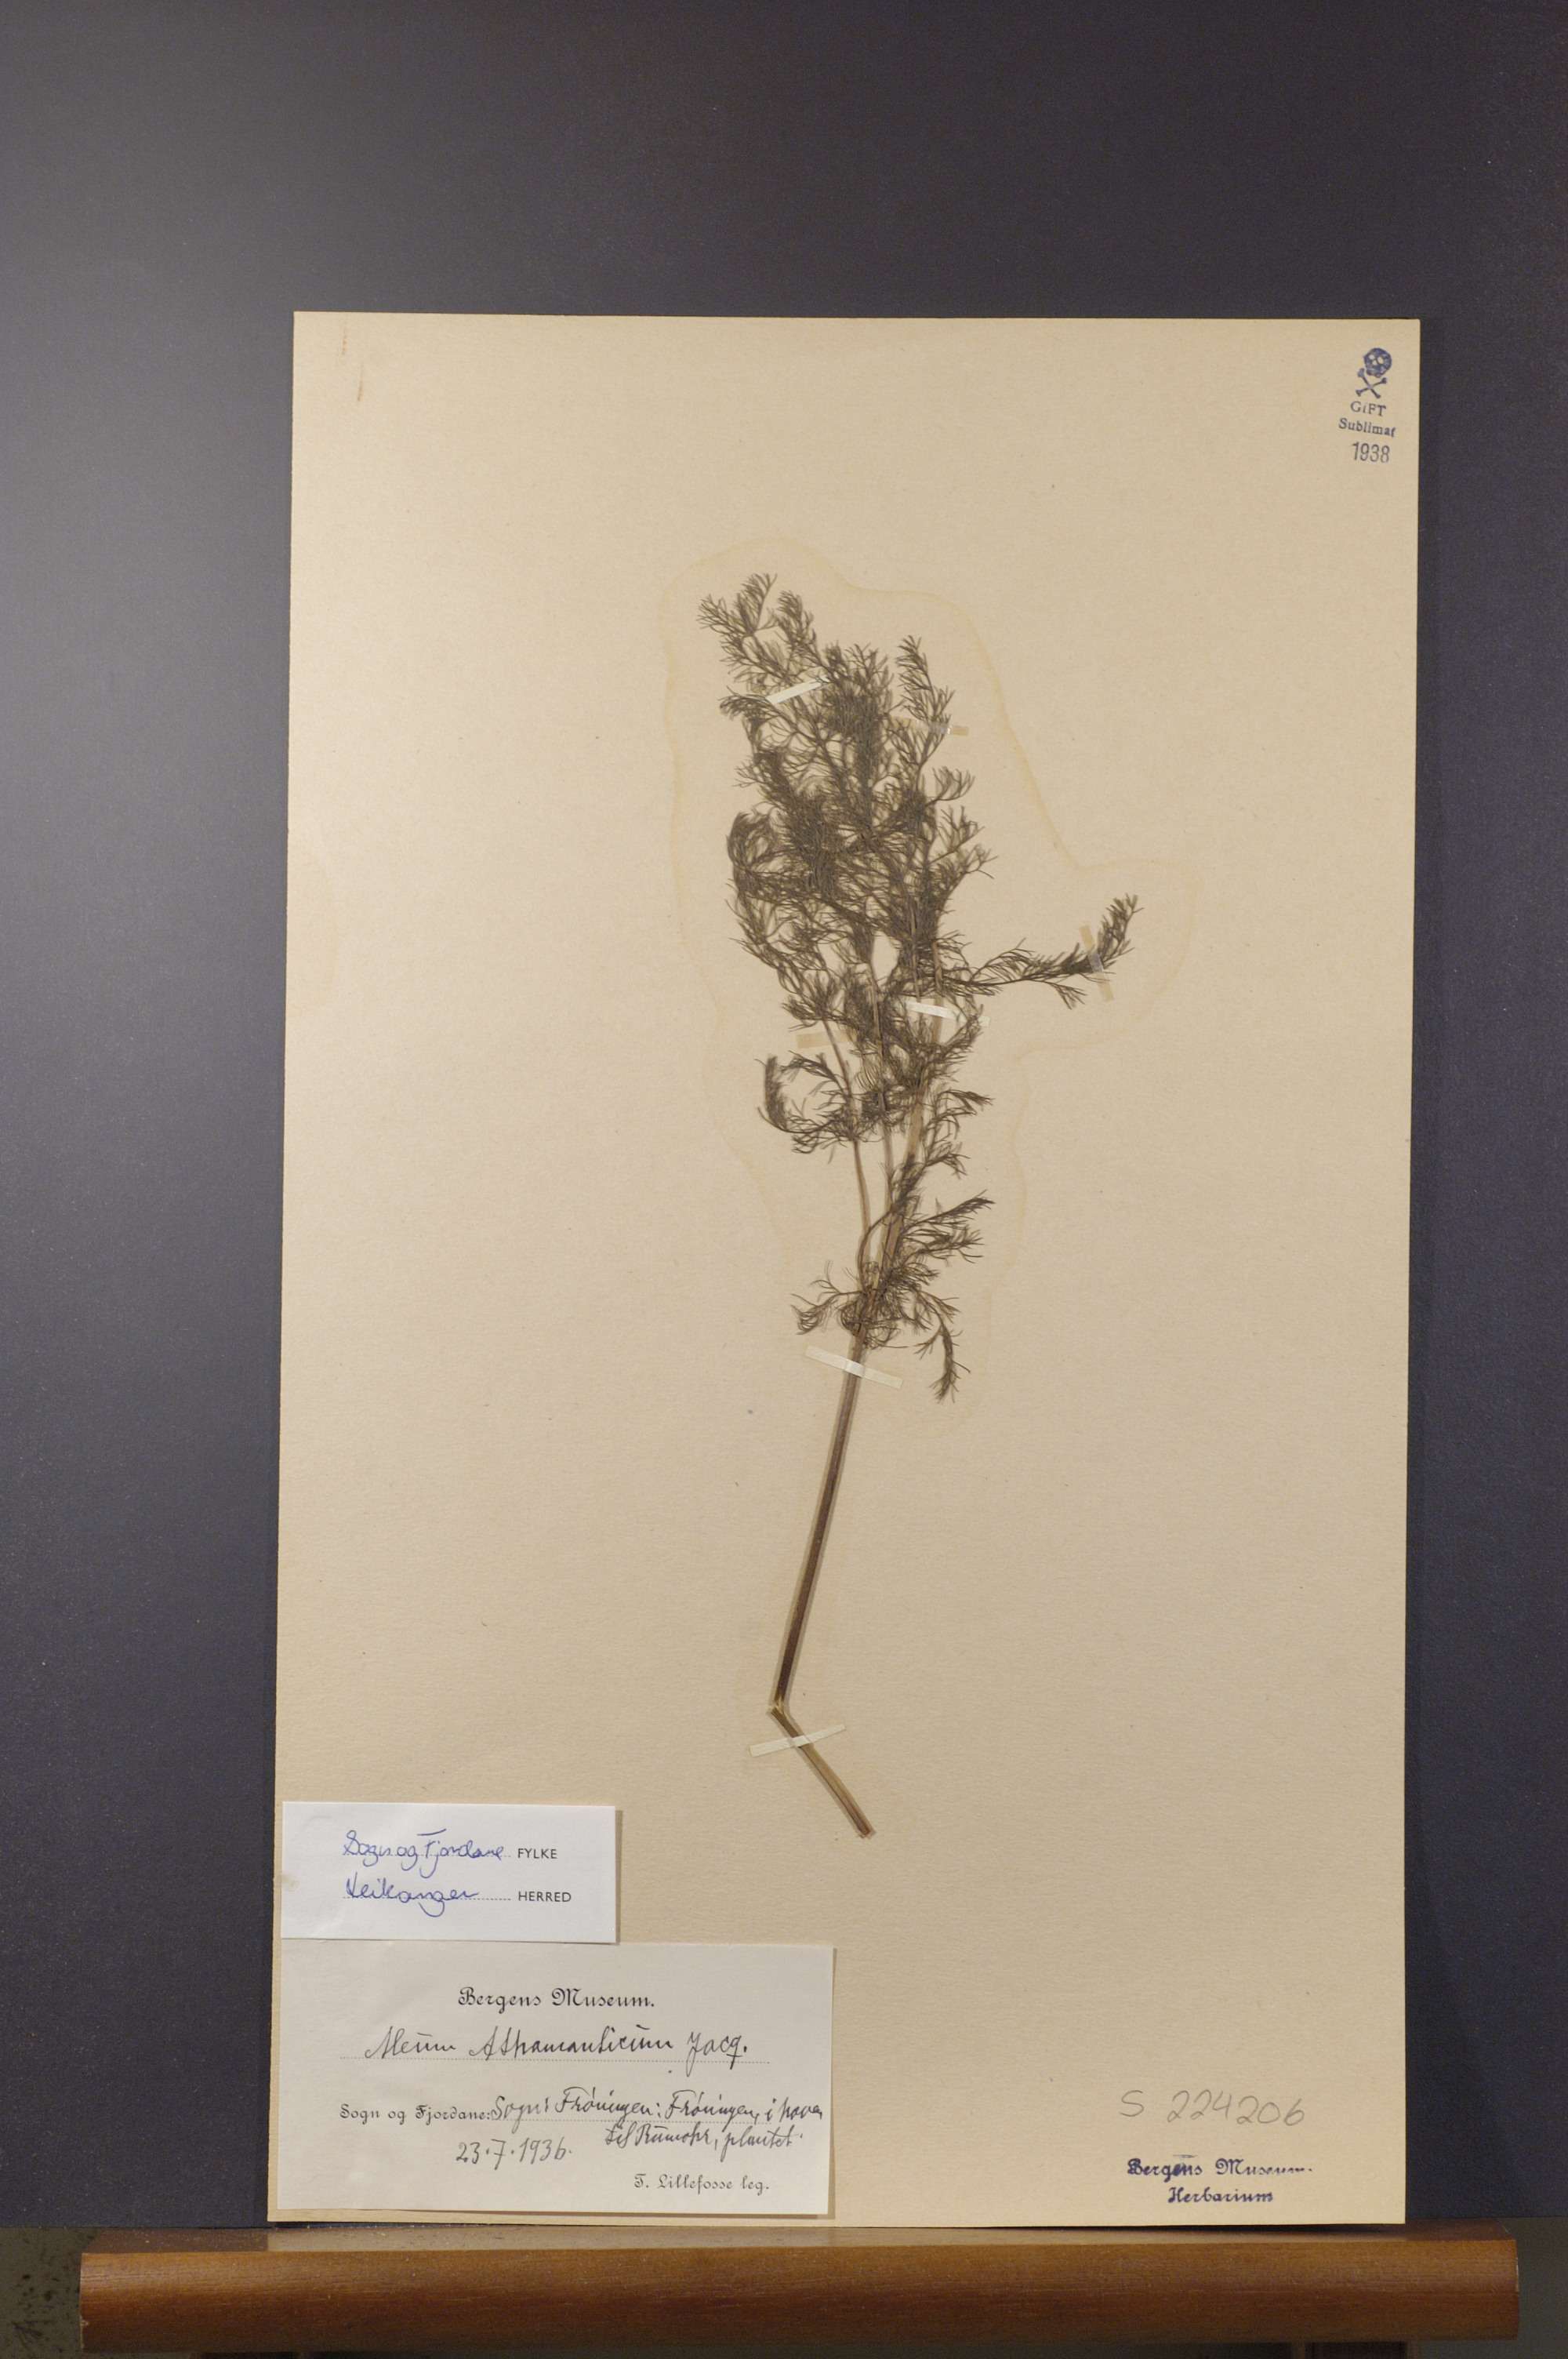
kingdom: Plantae
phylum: Tracheophyta
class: Magnoliopsida
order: Apiales
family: Apiaceae
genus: Meum
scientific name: Meum athamanticum
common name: Spignel
